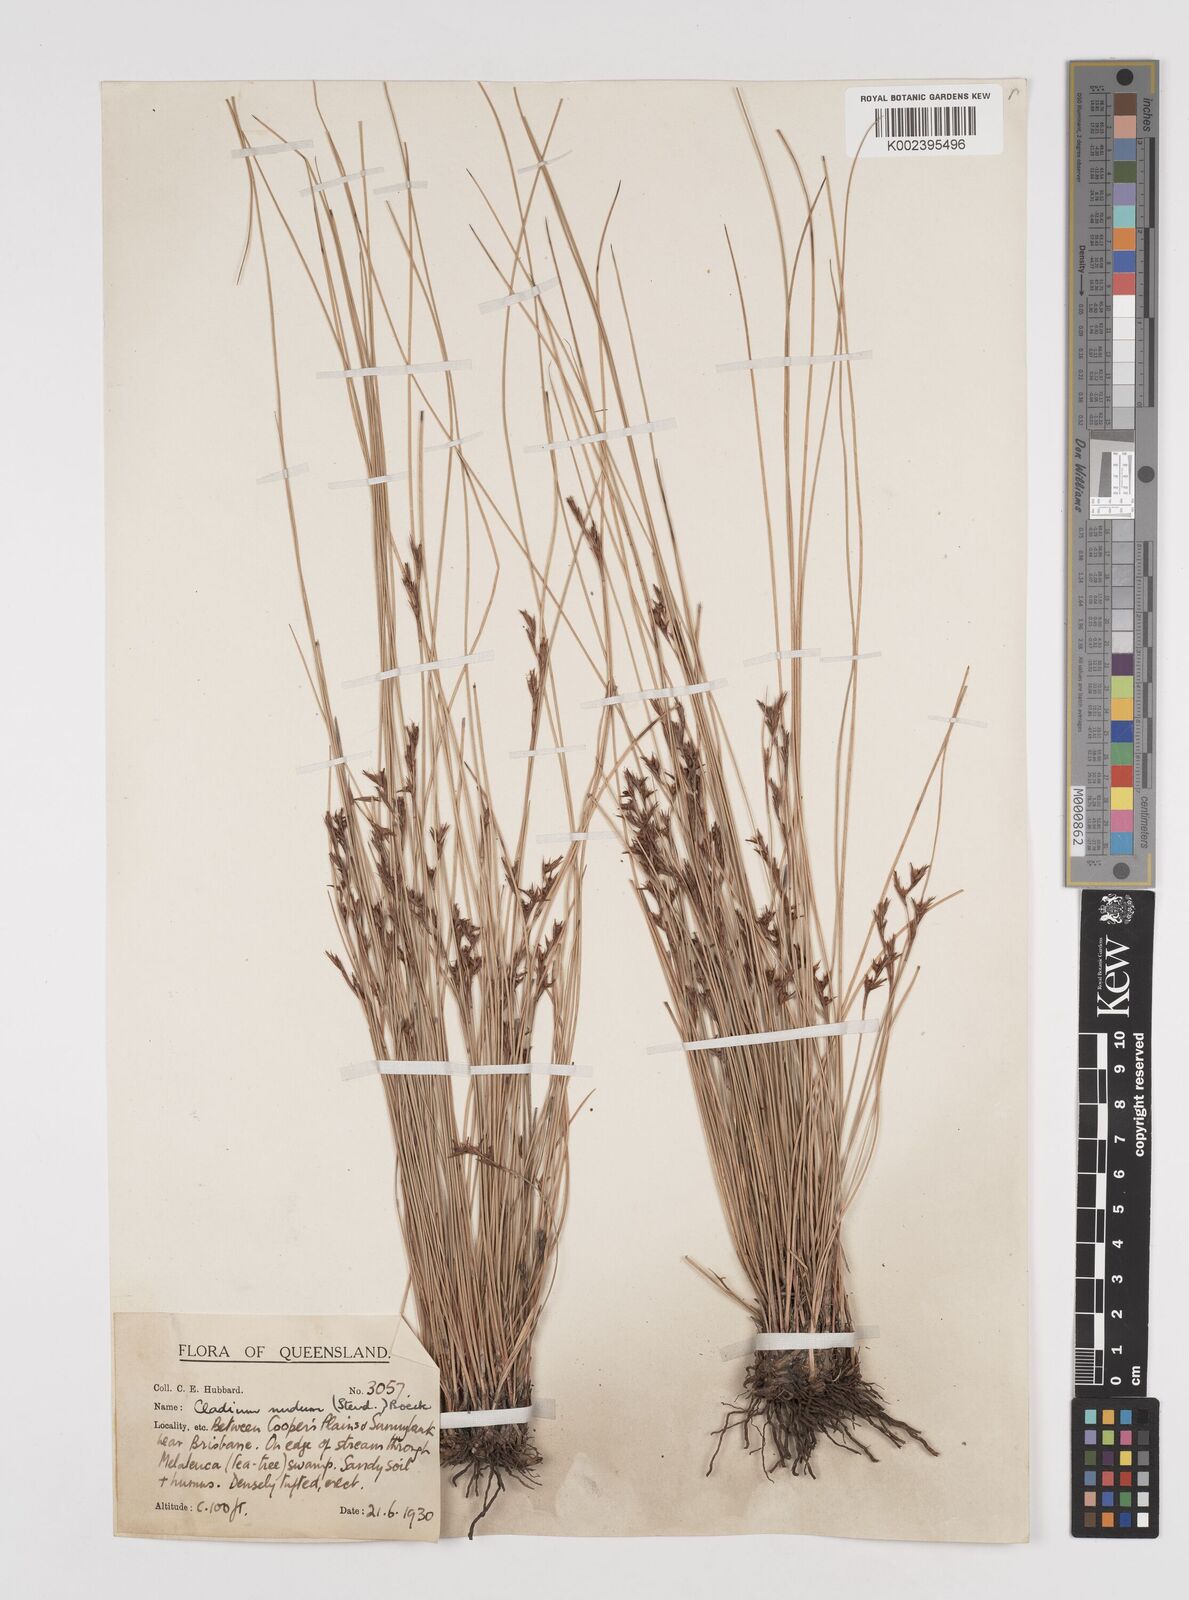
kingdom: Plantae
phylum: Tracheophyta
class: Liliopsida
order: Poales
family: Cyperaceae
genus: Machaerina
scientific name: Machaerina nuda
